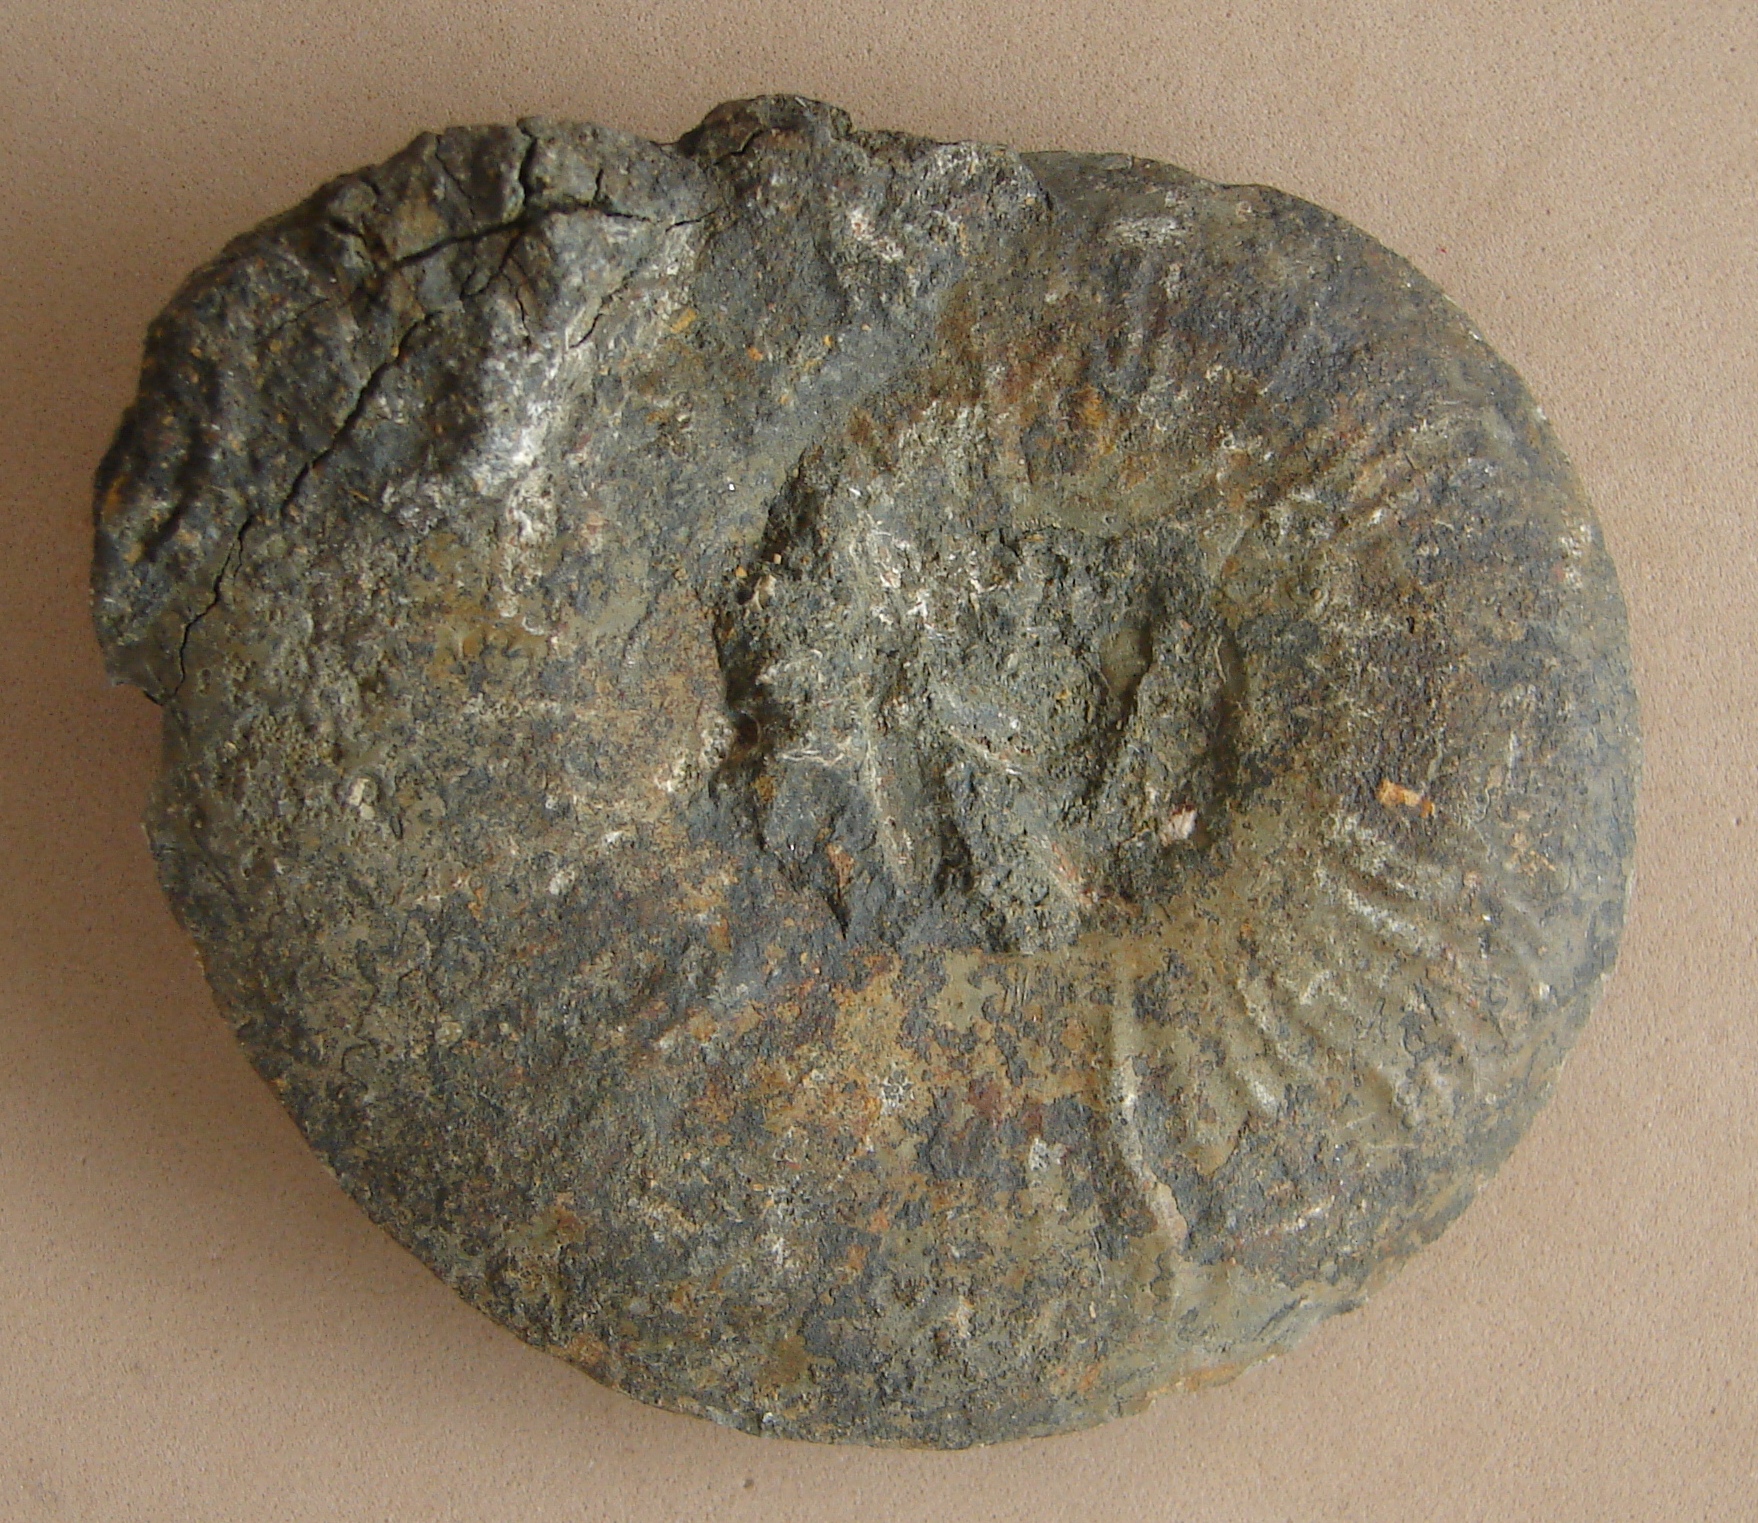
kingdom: Animalia
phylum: Mollusca
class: Cephalopoda
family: Hildoceratidae
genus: Pleydellia
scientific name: Pleydellia misera
